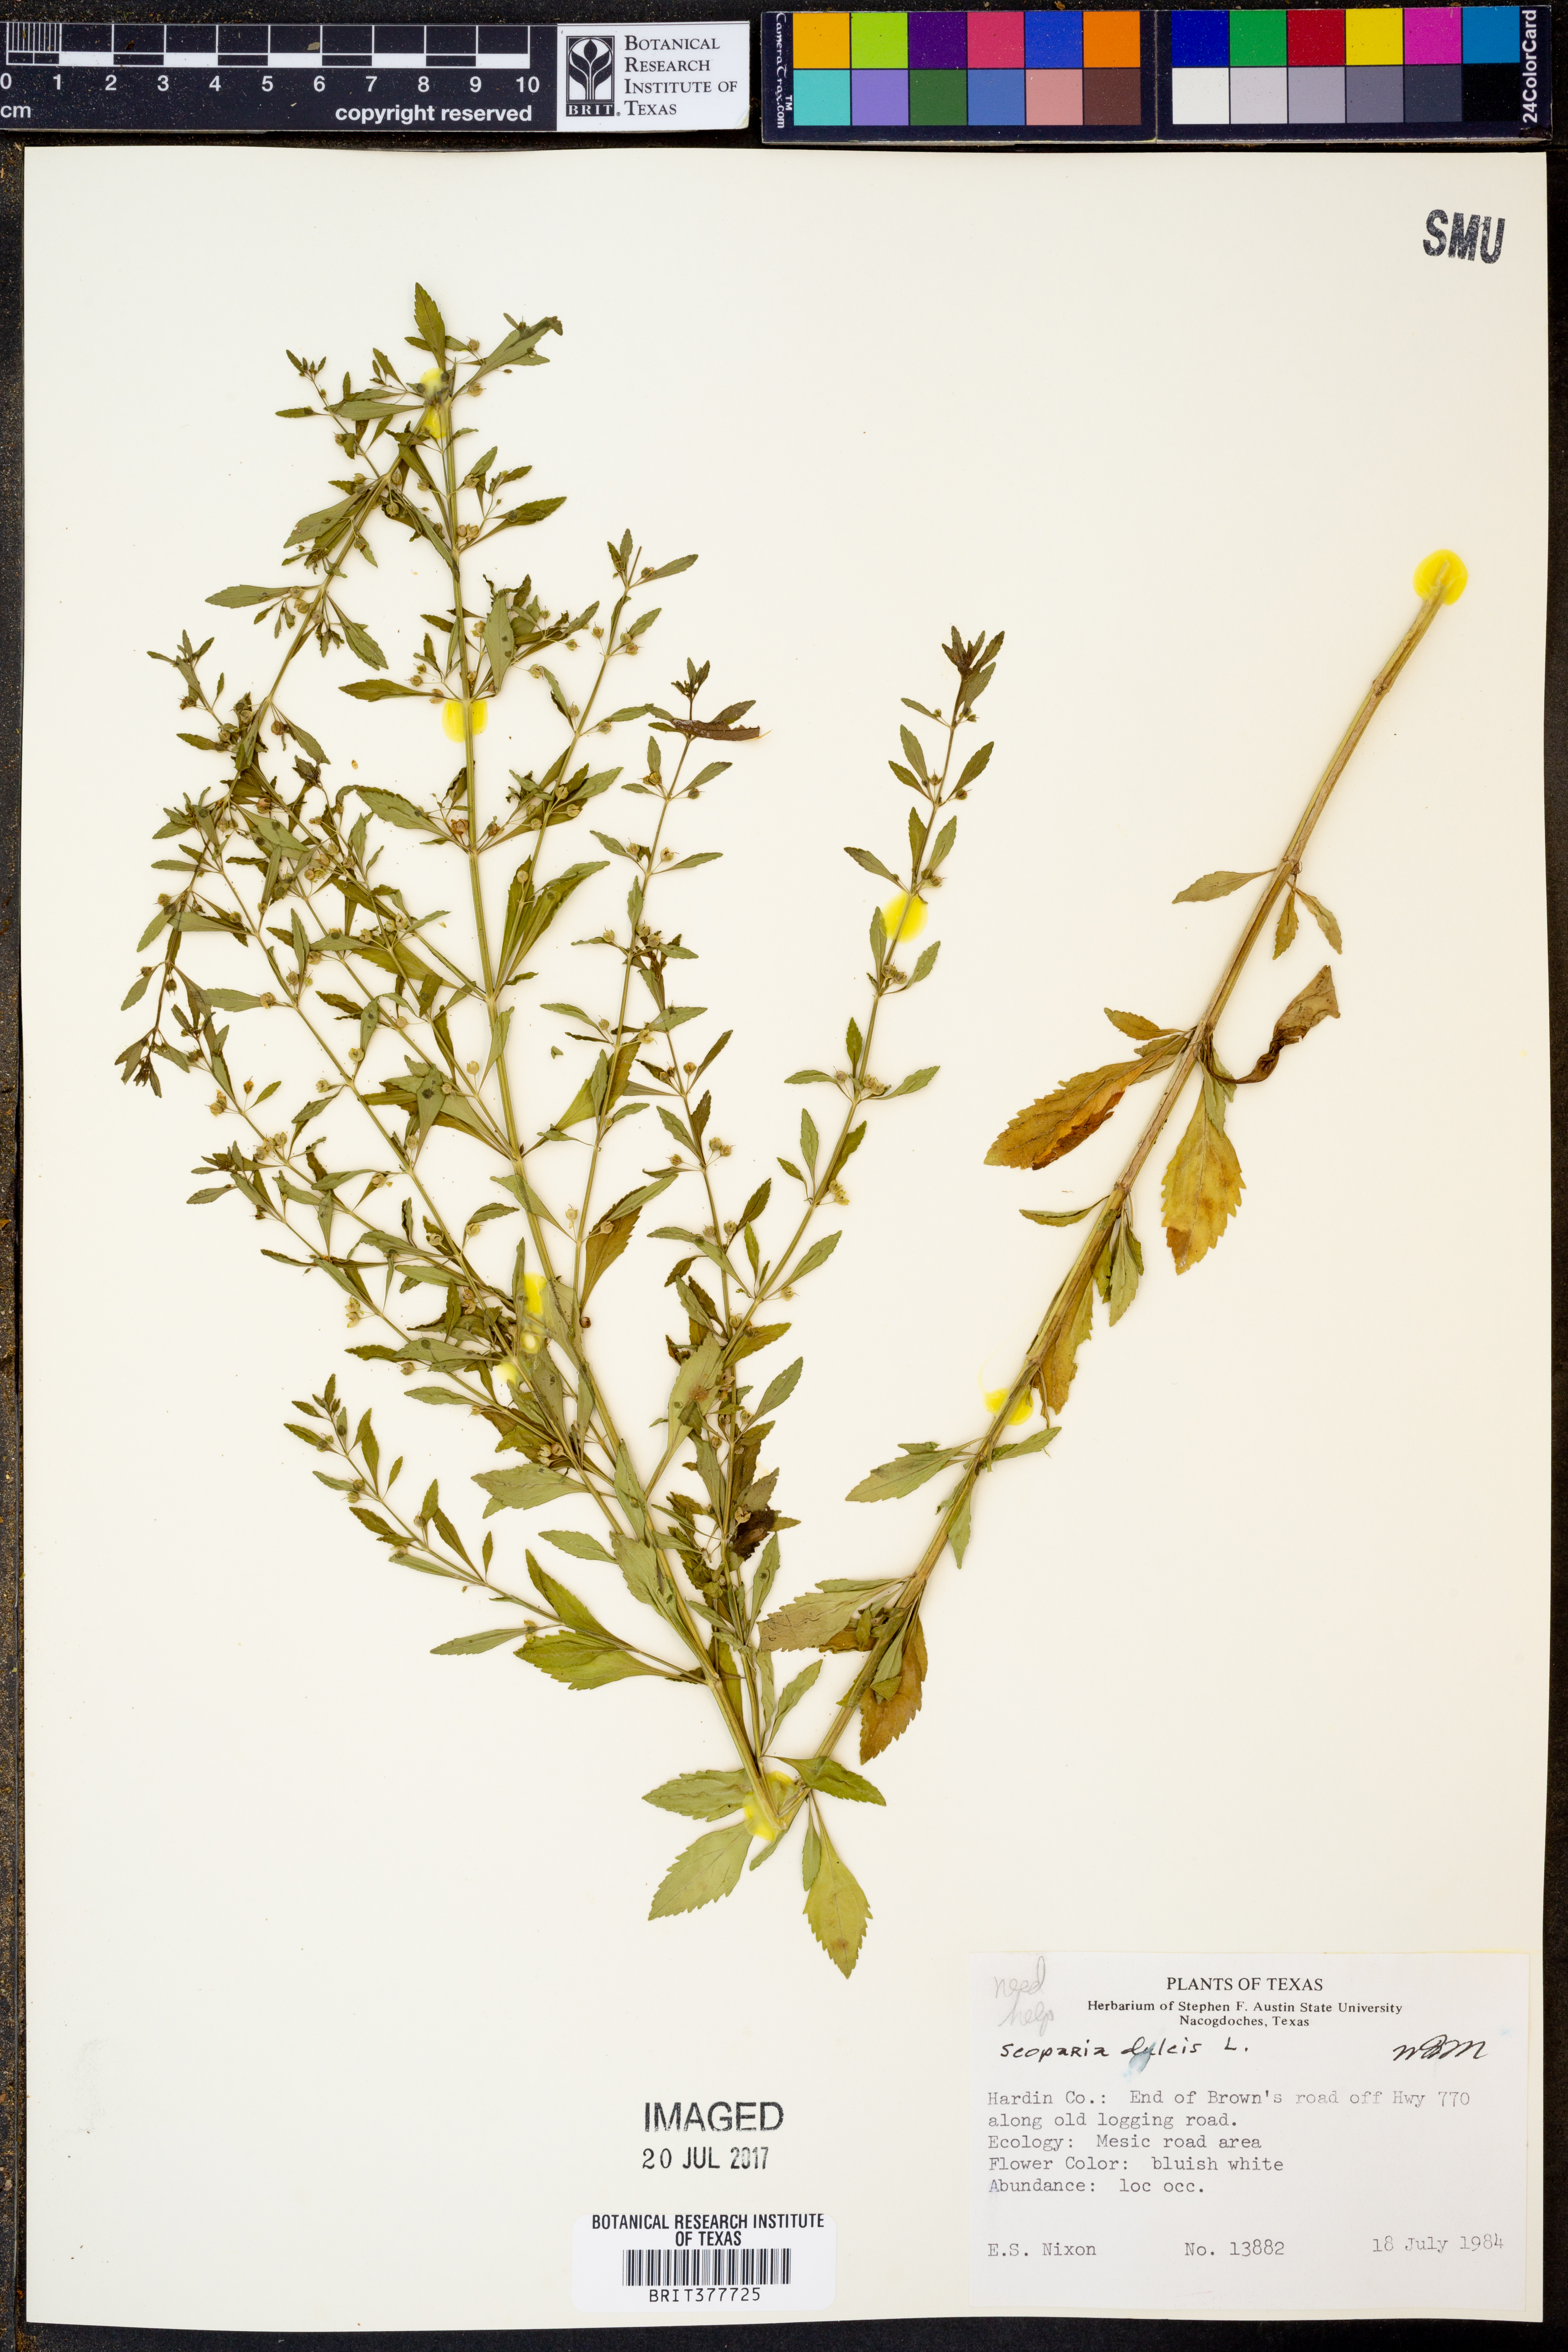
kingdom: Plantae
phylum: Tracheophyta
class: Magnoliopsida
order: Lamiales
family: Plantaginaceae
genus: Scoparia
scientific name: Scoparia dulcis
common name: Scoparia-weed
